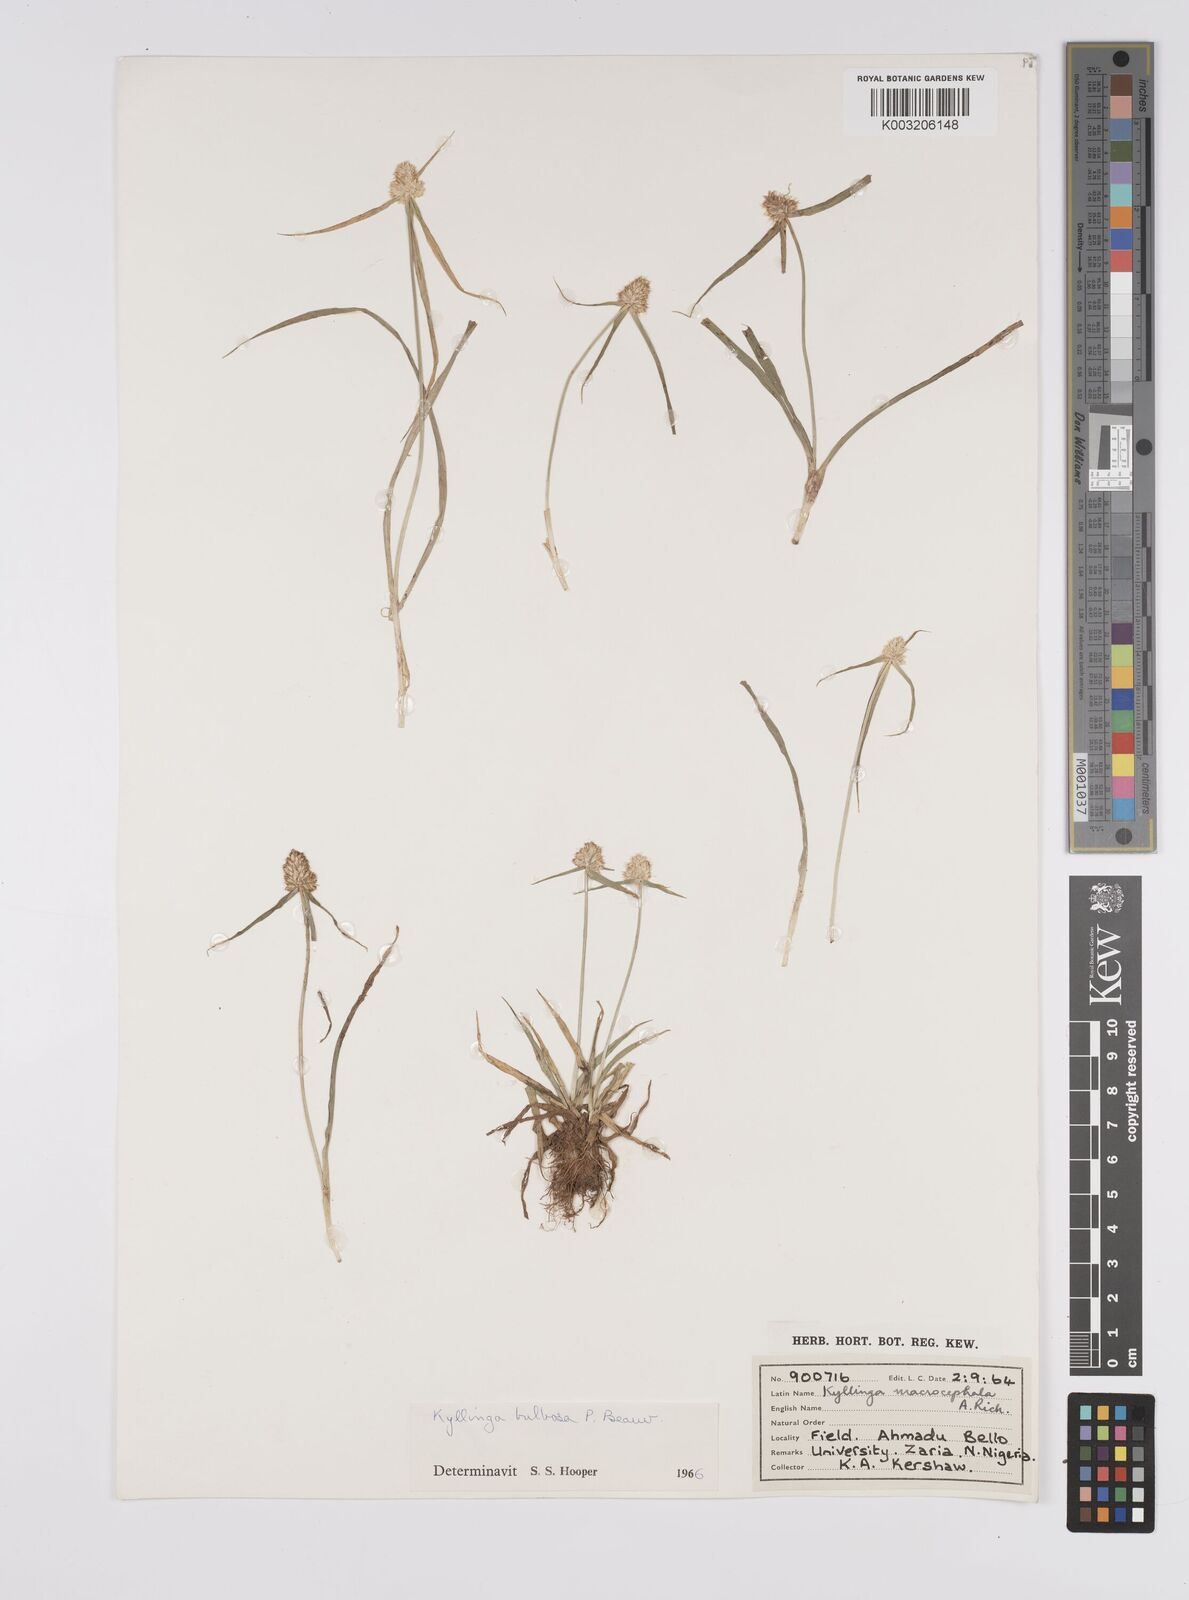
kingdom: Plantae
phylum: Tracheophyta
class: Liliopsida
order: Poales
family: Cyperaceae
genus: Cyperus
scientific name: Cyperus
